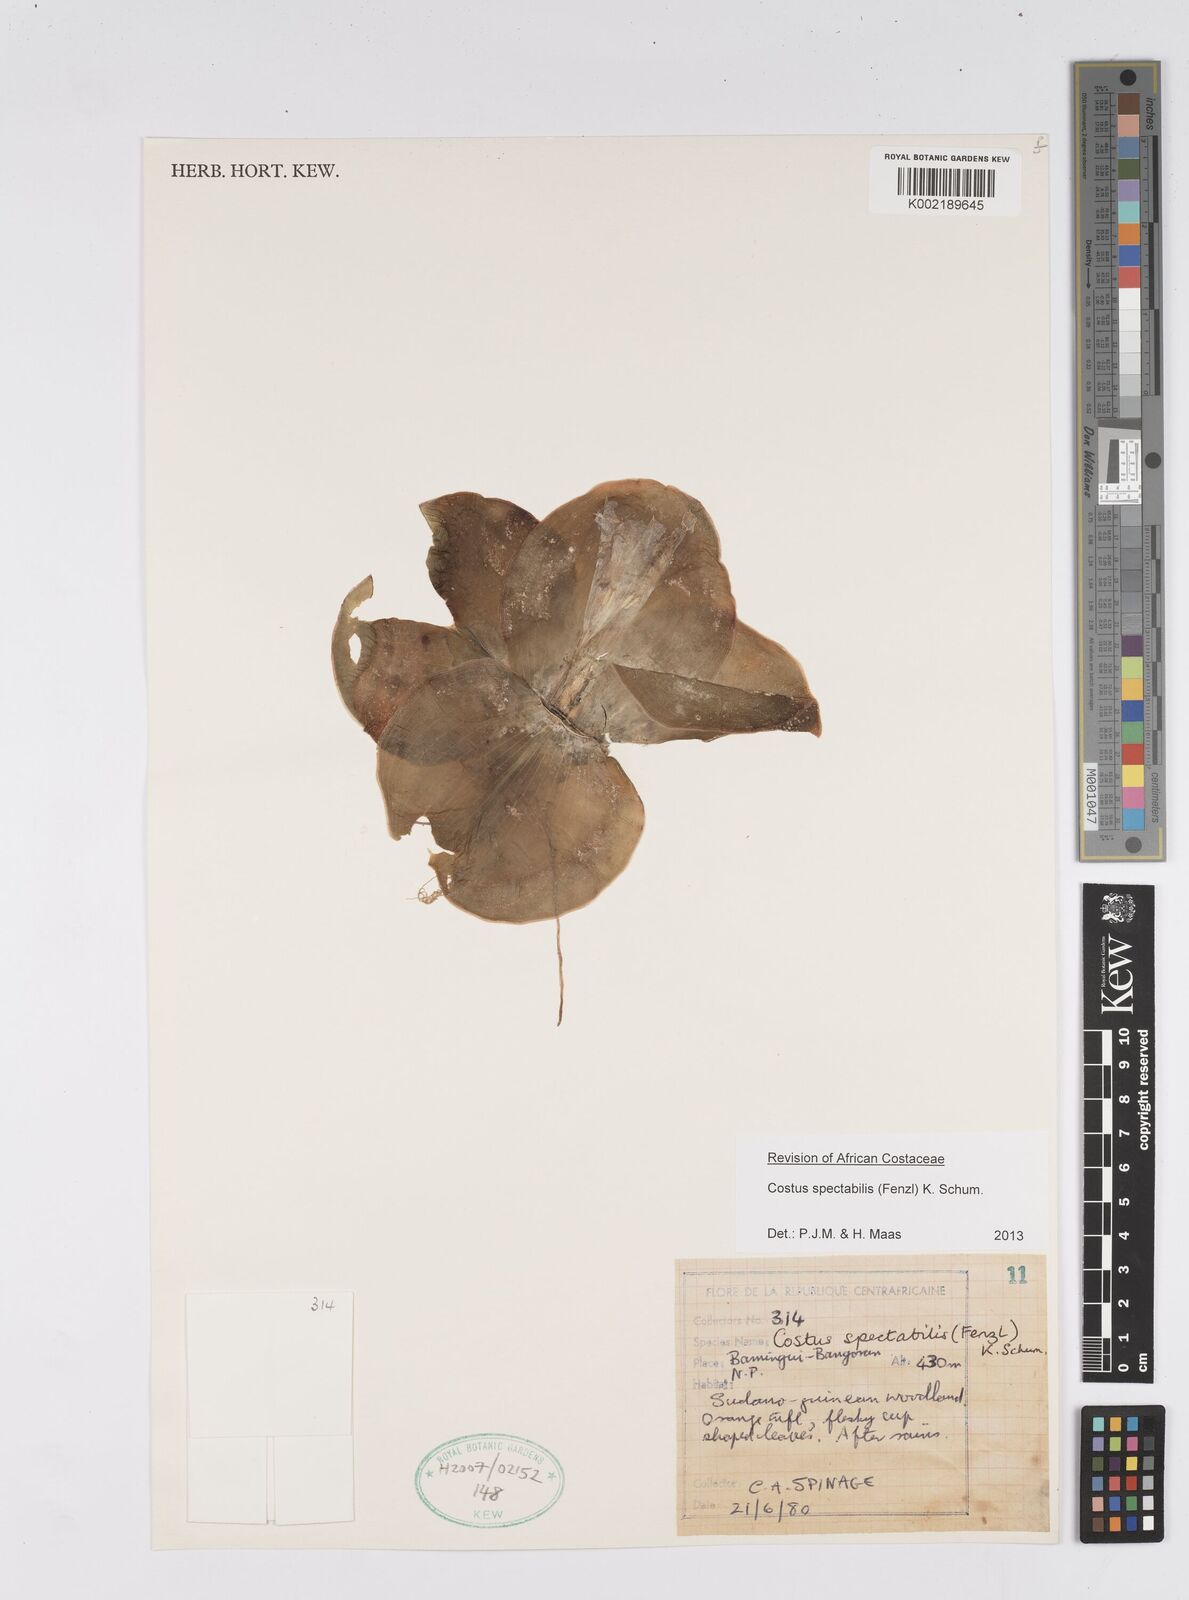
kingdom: Plantae
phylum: Tracheophyta
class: Liliopsida
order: Zingiberales
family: Costaceae
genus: Costus
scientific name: Costus spectabilis
